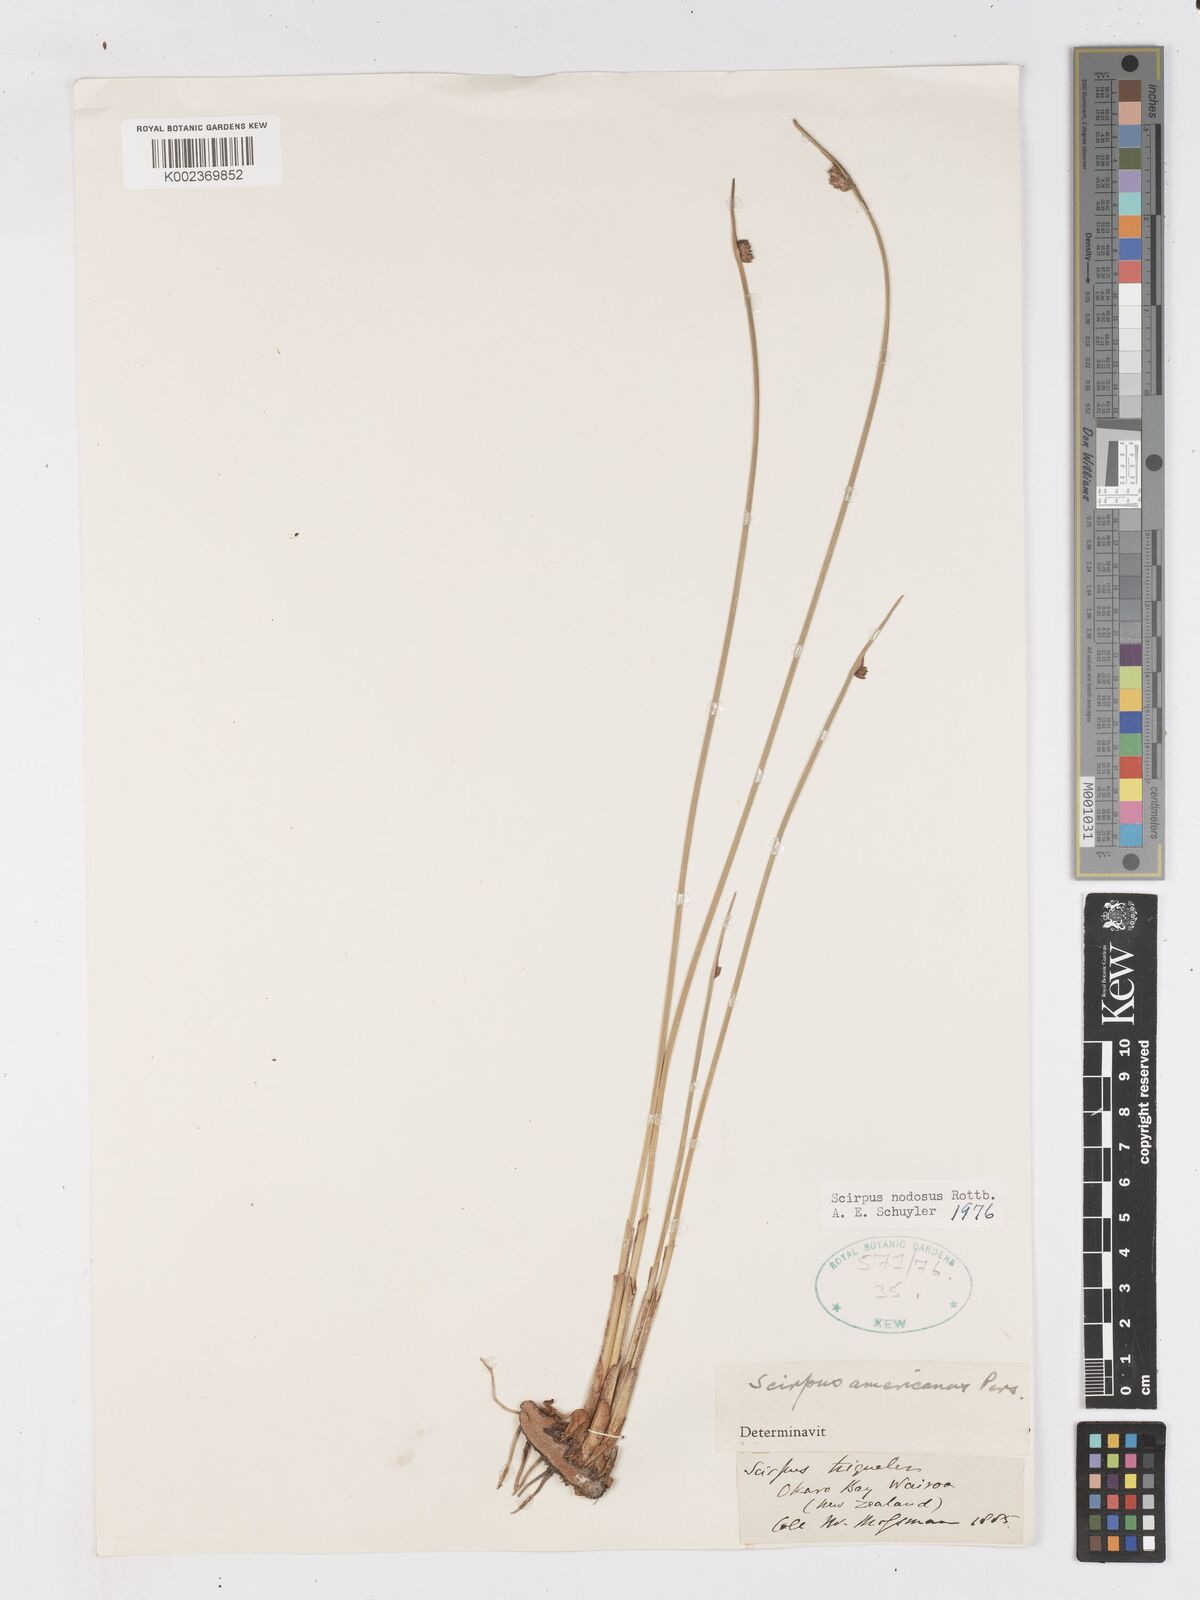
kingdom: Plantae
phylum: Tracheophyta
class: Liliopsida
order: Poales
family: Cyperaceae
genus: Ficinia
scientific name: Ficinia nodosa
